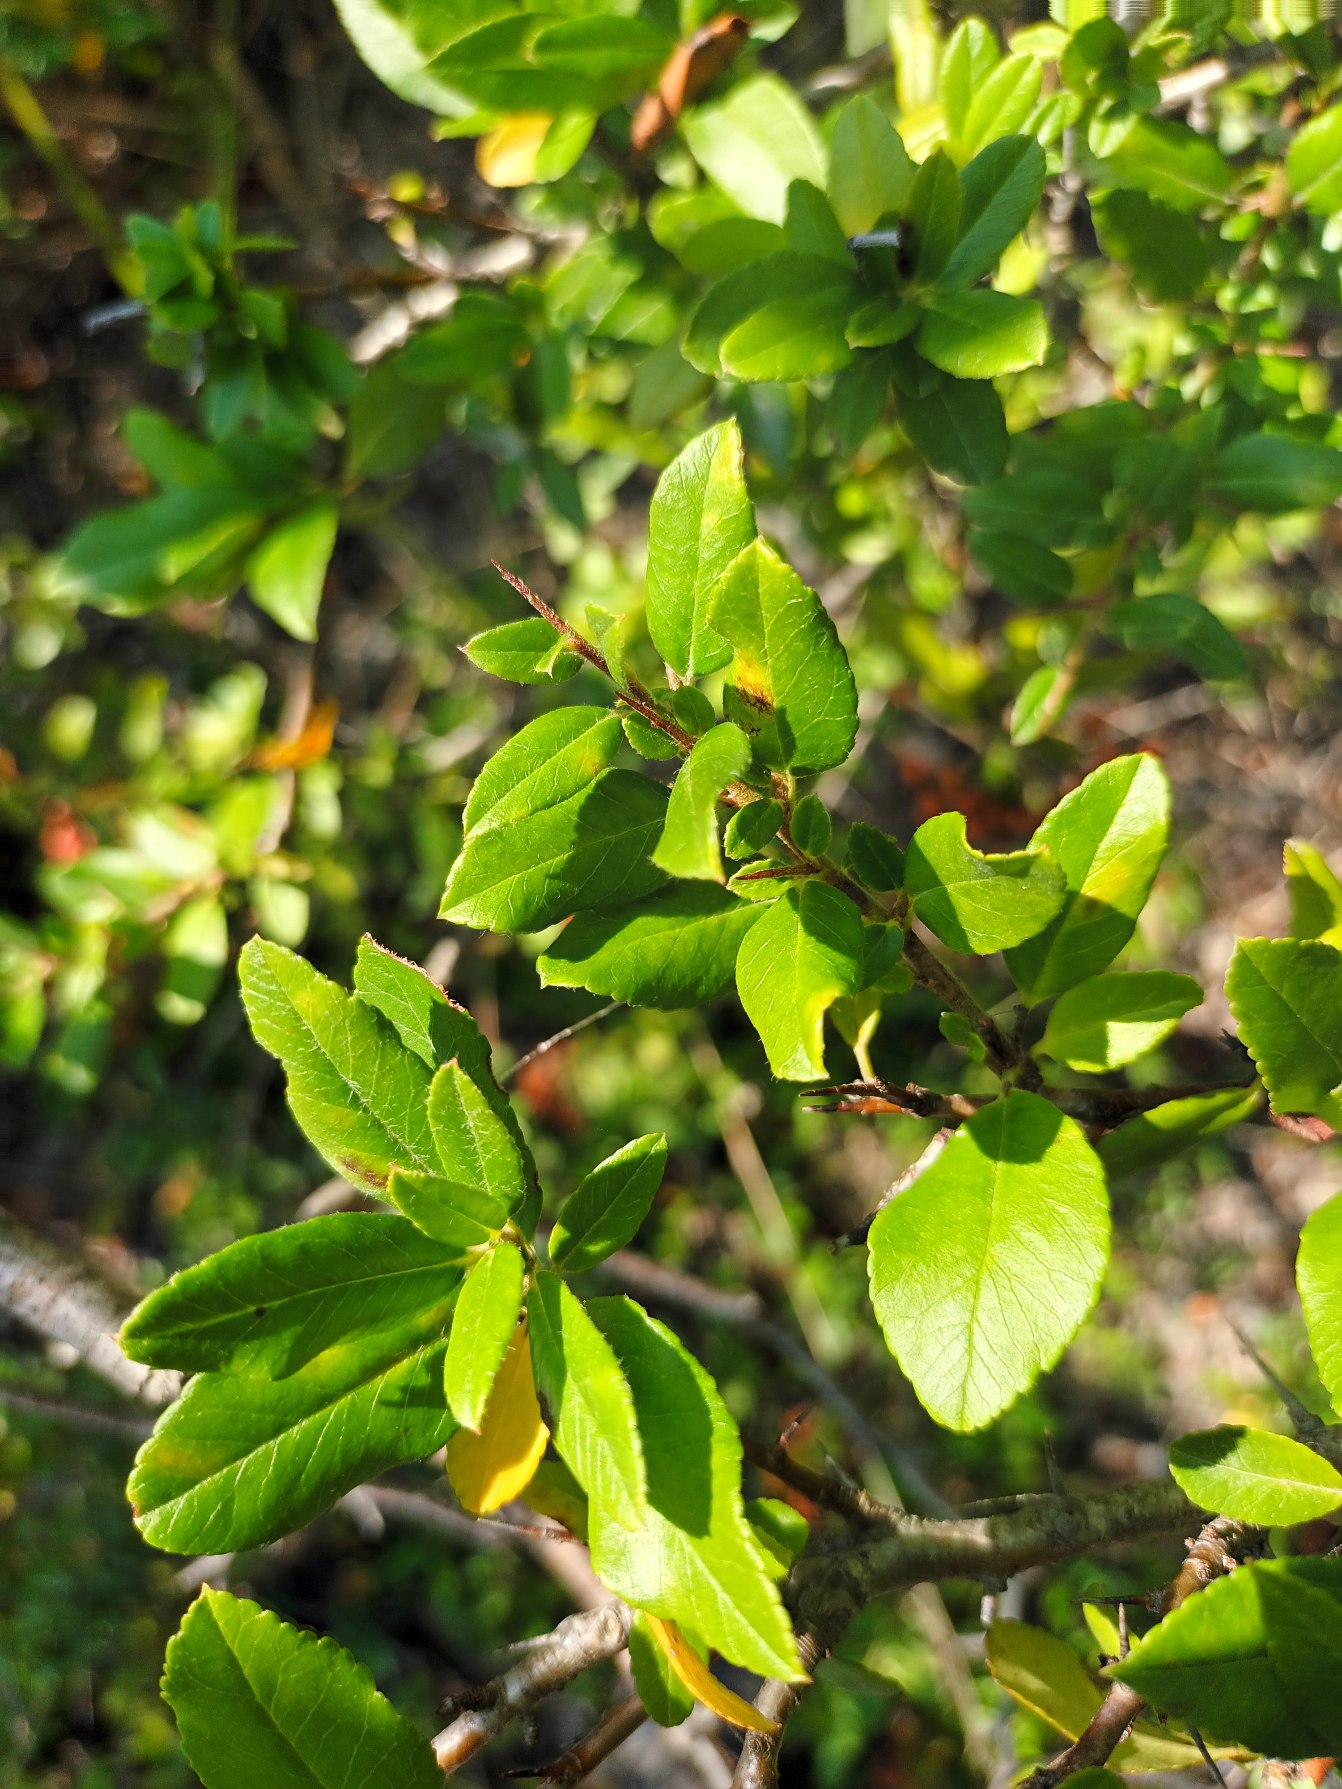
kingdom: Plantae
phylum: Tracheophyta
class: Magnoliopsida
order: Rosales
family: Rosaceae
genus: Pyracantha
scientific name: Pyracantha crenulata
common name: Orangegul ildtorn
